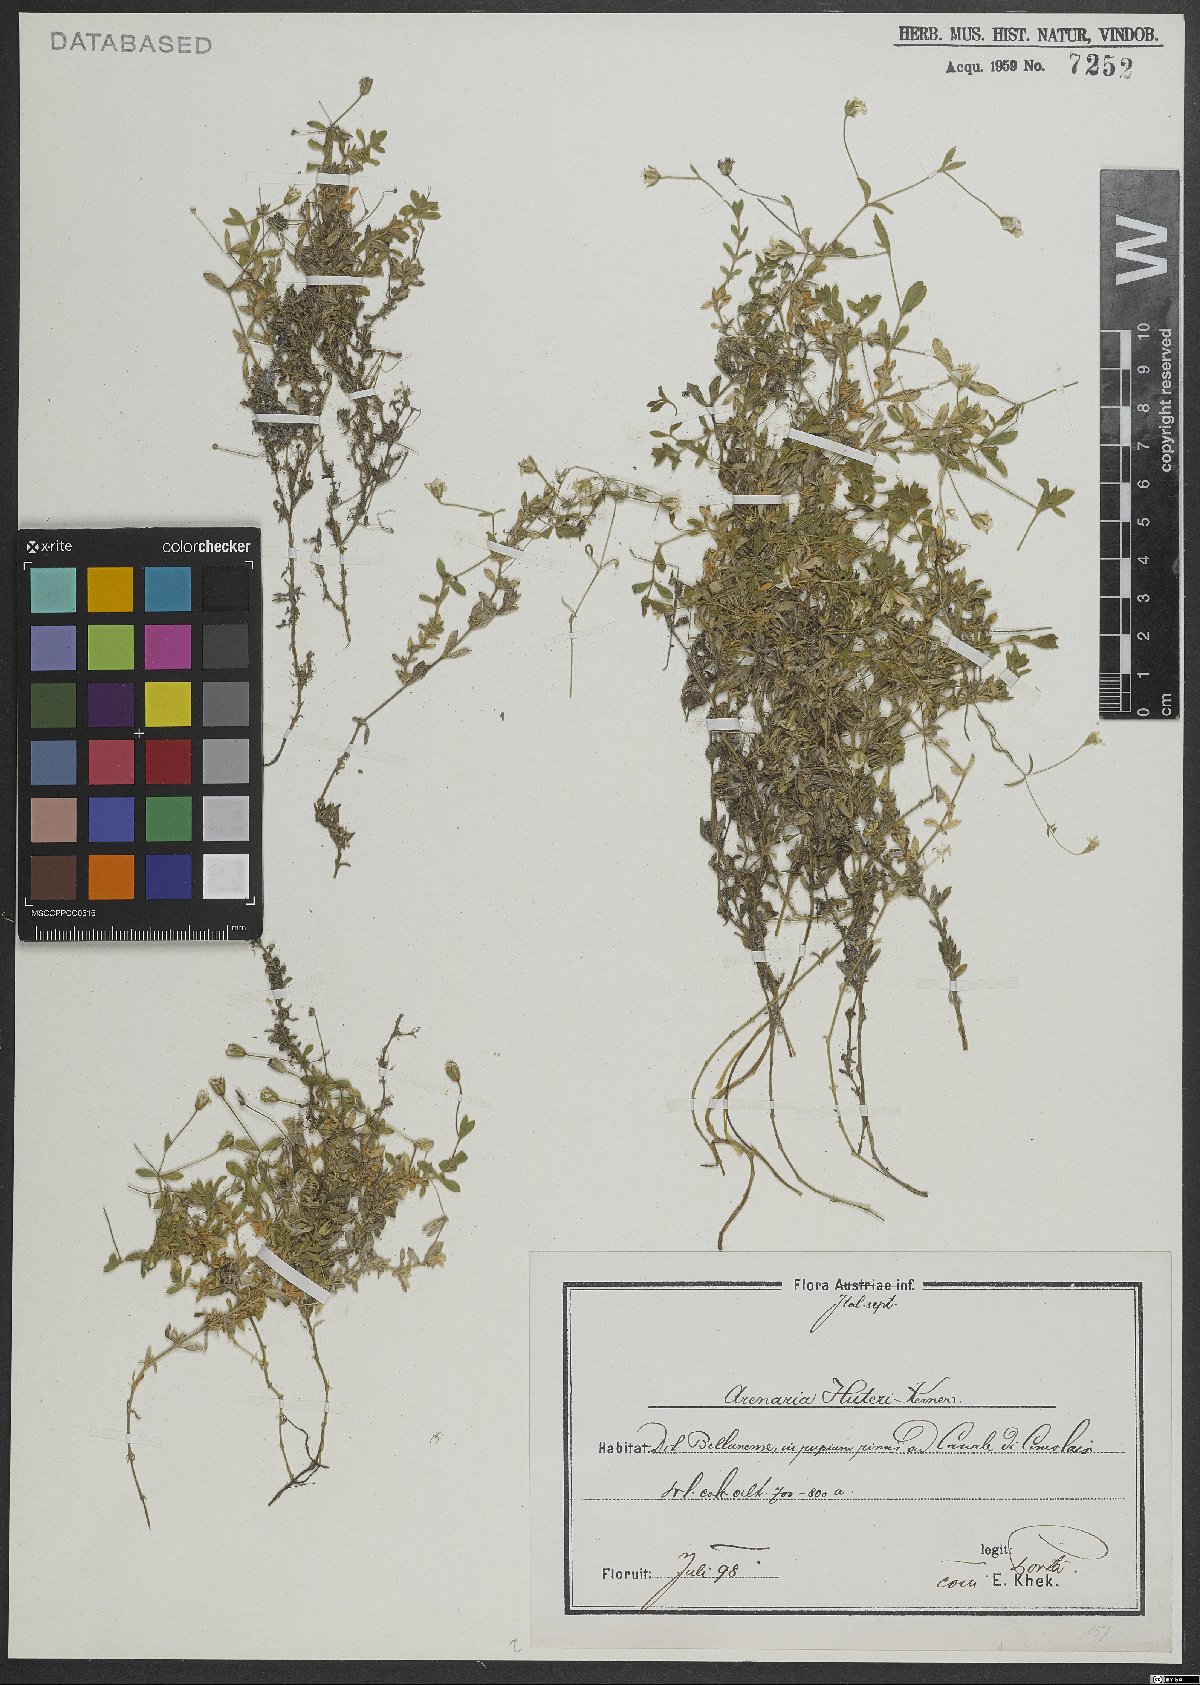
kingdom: Plantae
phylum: Tracheophyta
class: Magnoliopsida
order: Caryophyllales
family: Caryophyllaceae
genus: Arenaria
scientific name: Arenaria huteri
